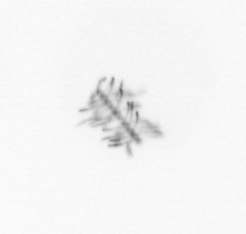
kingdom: Chromista
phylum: Ochrophyta
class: Bacillariophyceae
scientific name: Bacillariophyceae
